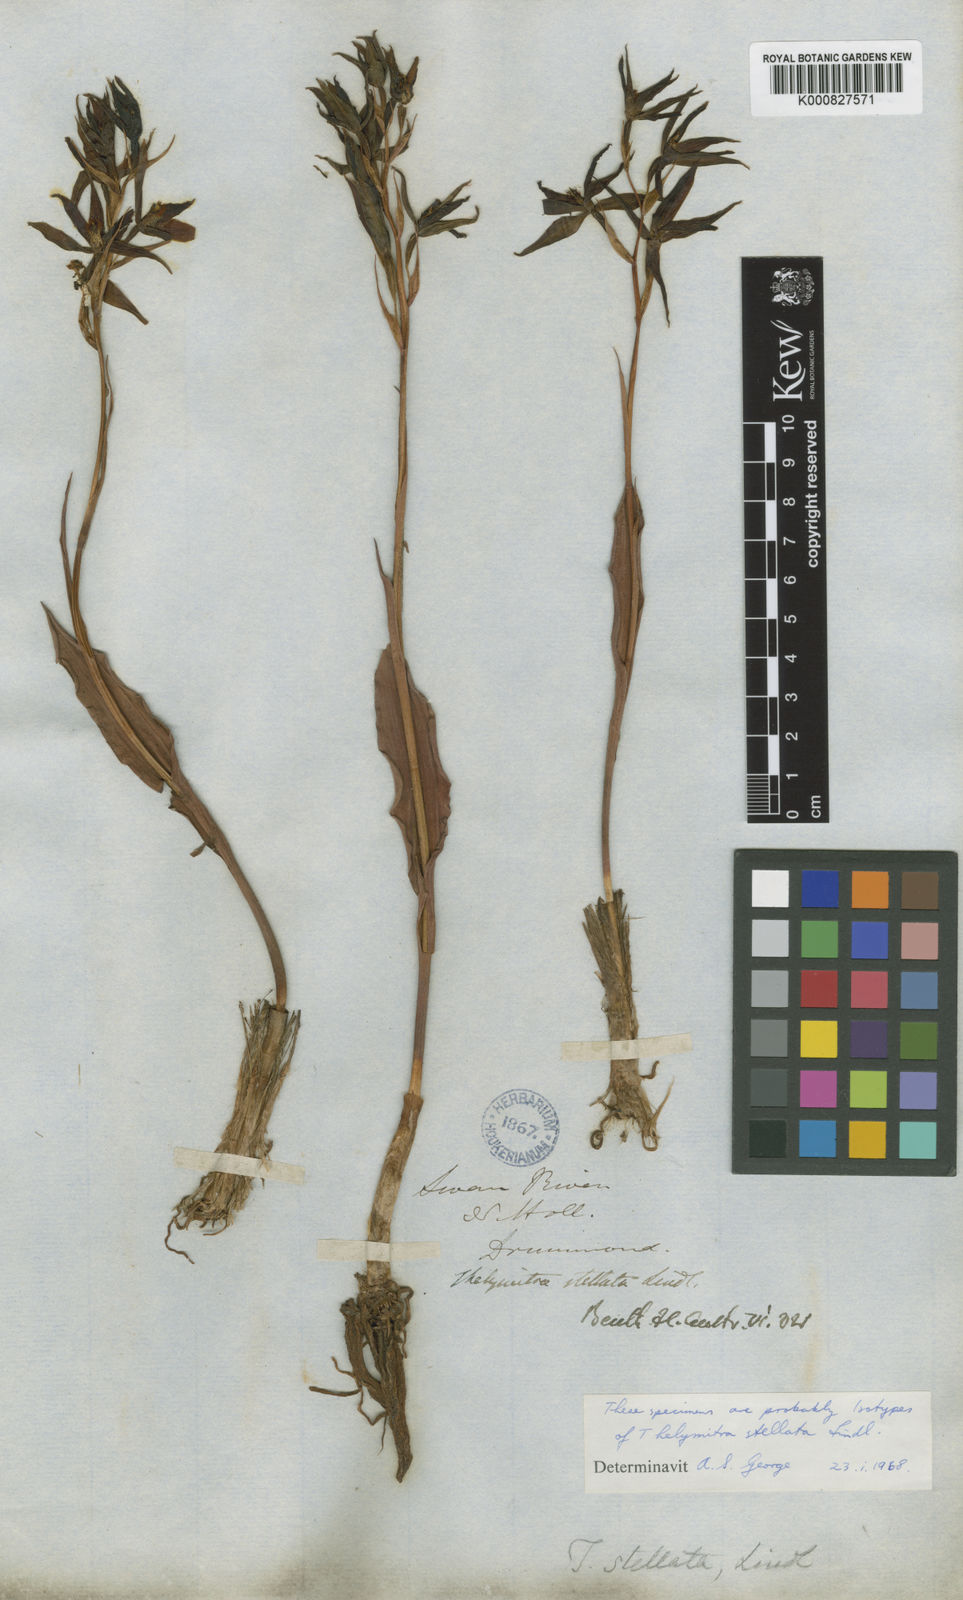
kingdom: Plantae
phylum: Tracheophyta
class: Liliopsida
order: Asparagales
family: Orchidaceae
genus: Thelymitra
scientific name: Thelymitra stellata
